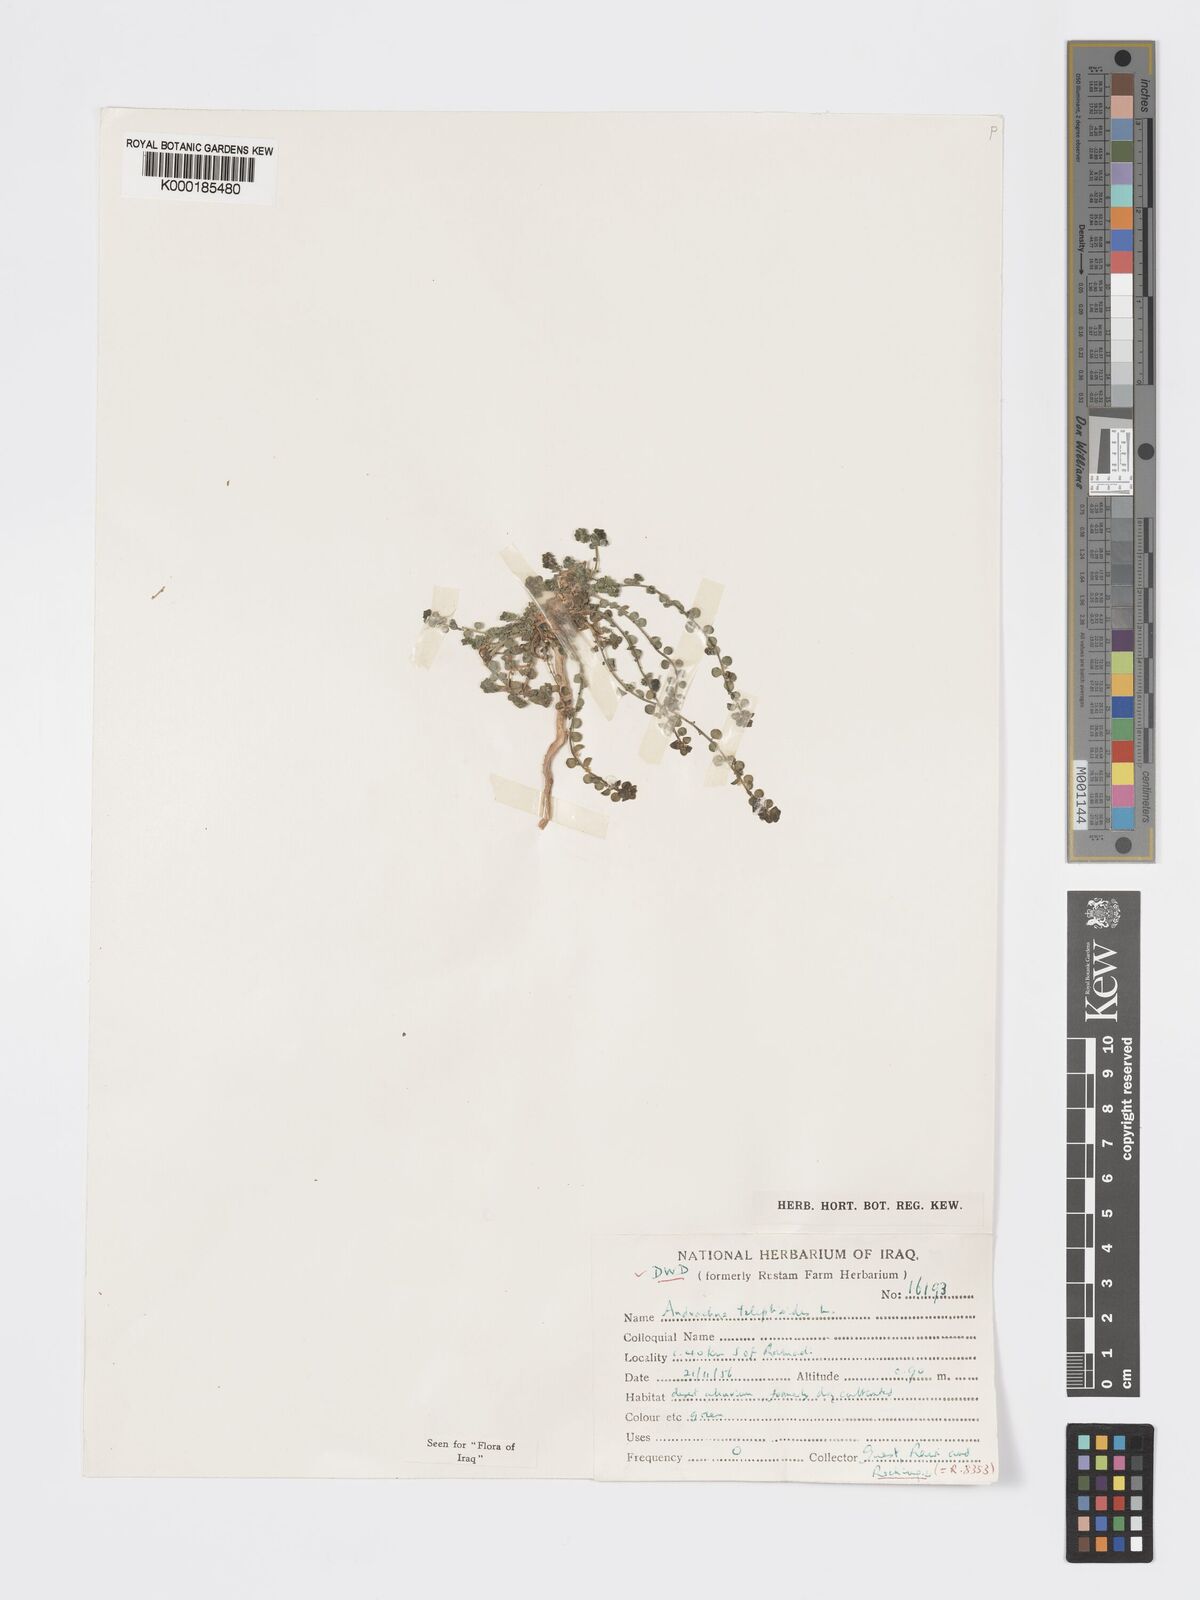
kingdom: Plantae
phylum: Tracheophyta
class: Magnoliopsida
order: Malpighiales
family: Phyllanthaceae
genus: Andrachne
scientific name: Andrachne telephioides
